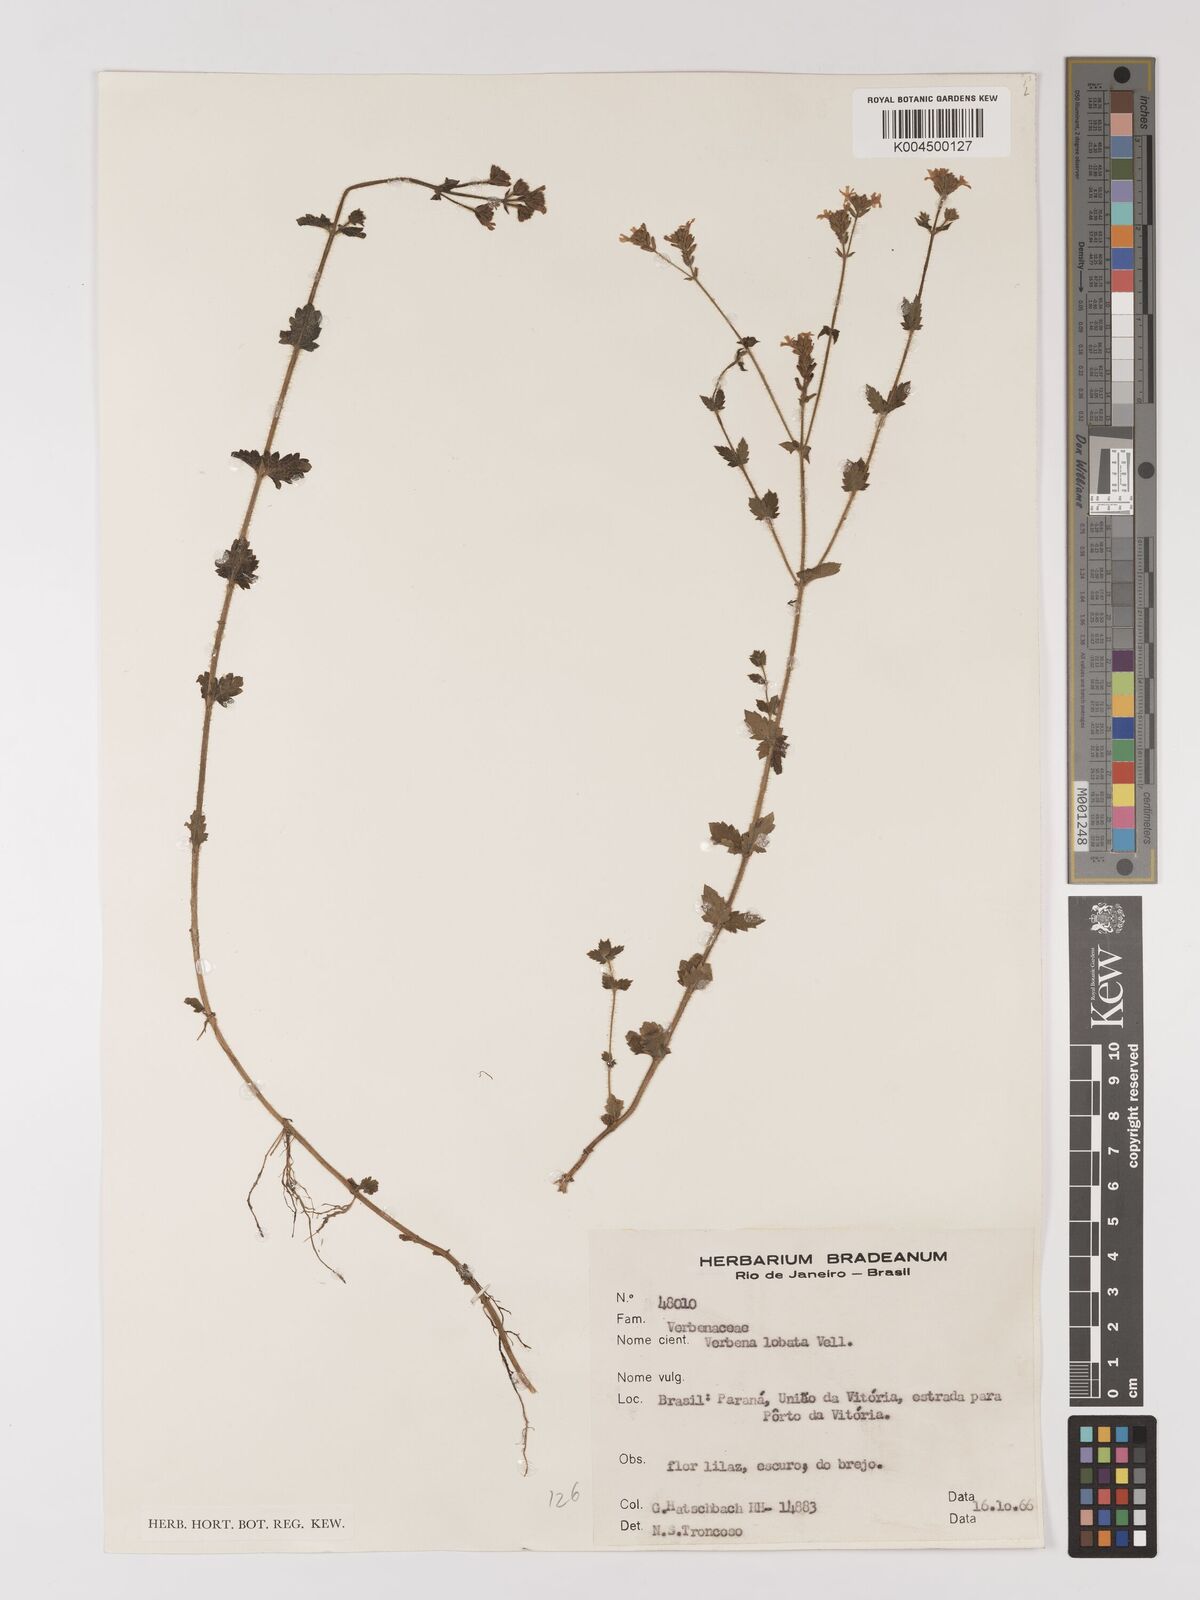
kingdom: Plantae
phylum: Tracheophyta
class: Magnoliopsida
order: Lamiales
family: Verbenaceae
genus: Verbena
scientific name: Verbena lobata
